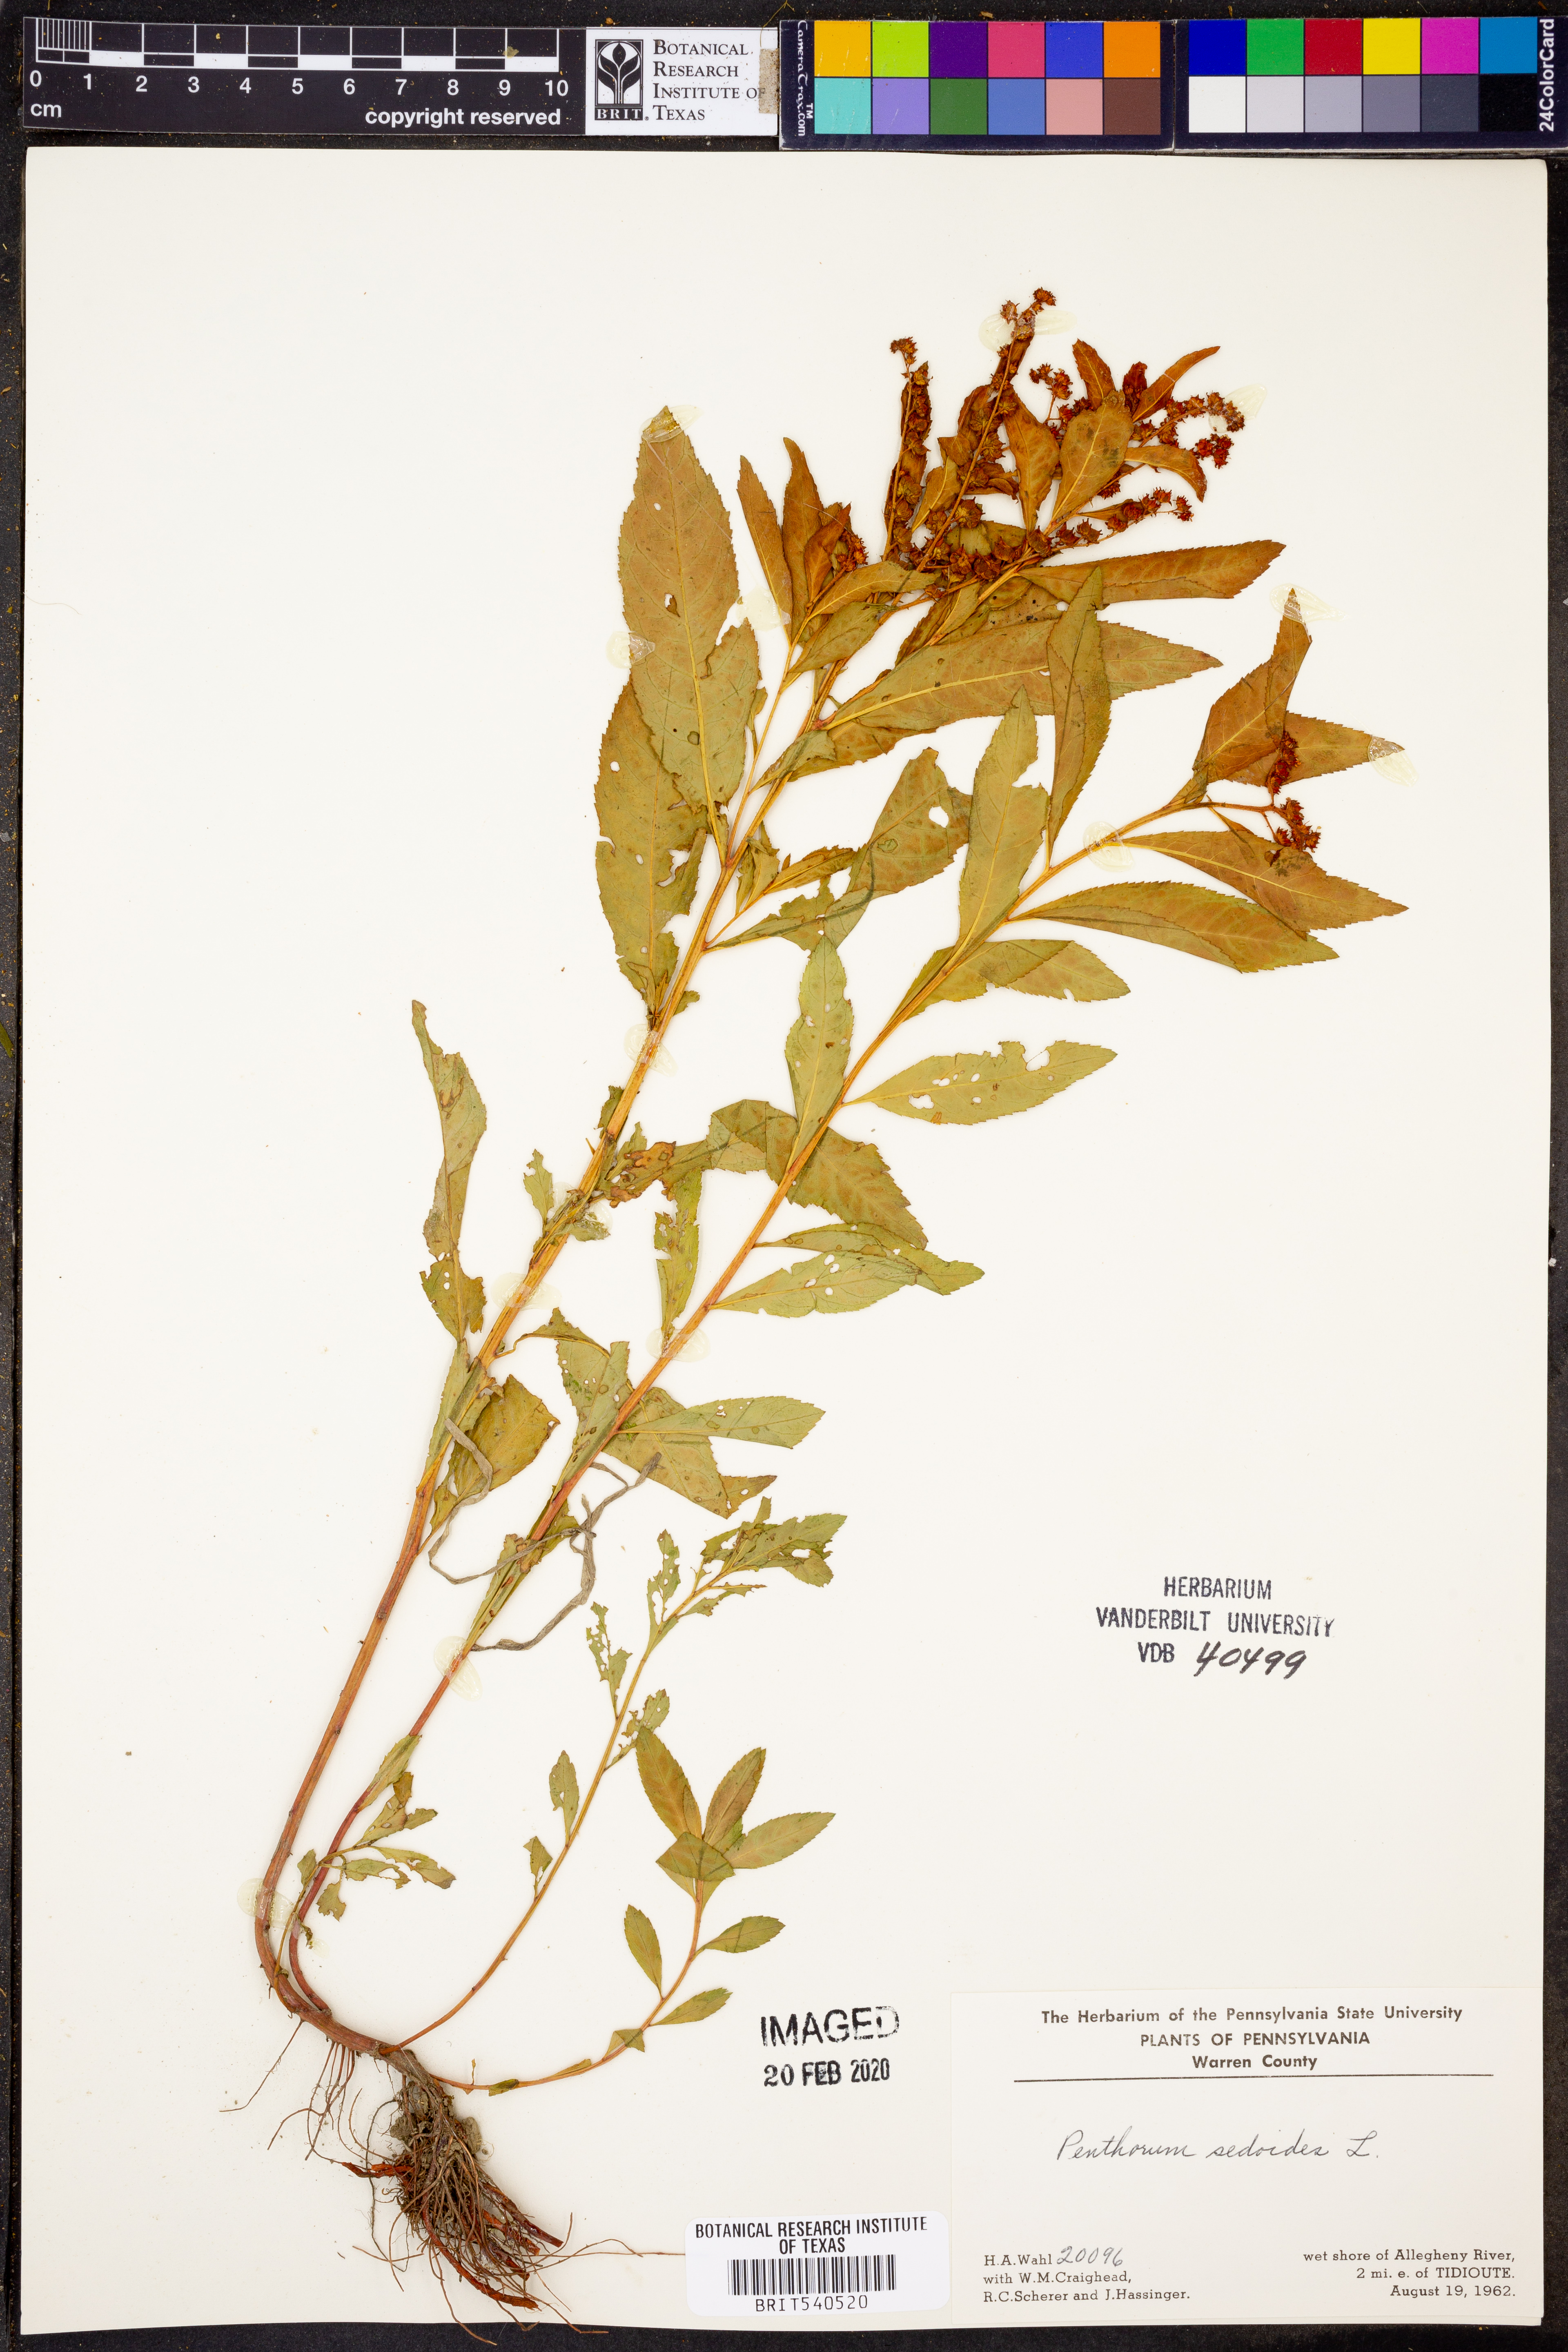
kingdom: Plantae
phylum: Tracheophyta
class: Magnoliopsida
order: Saxifragales
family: Penthoraceae
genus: Penthorum
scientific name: Penthorum sedoides
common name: Ditch stonecrop
